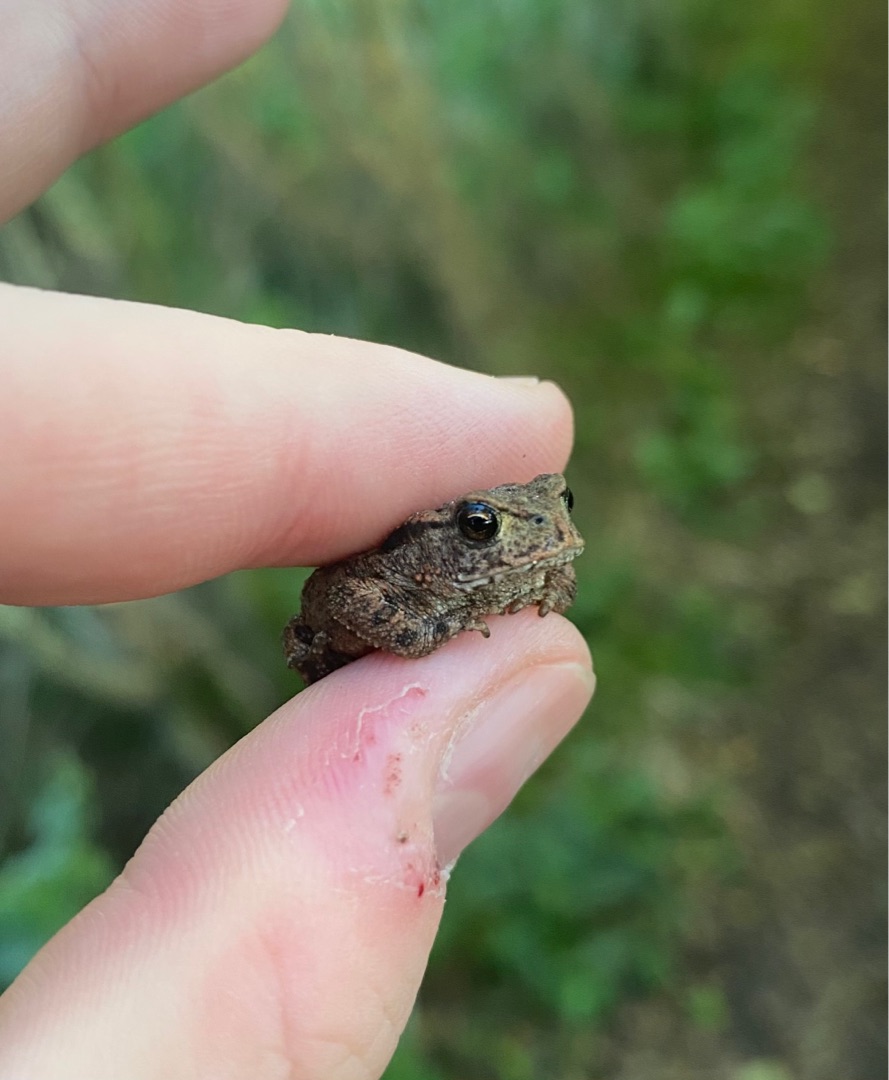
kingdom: Animalia
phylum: Chordata
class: Amphibia
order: Anura
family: Bufonidae
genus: Bufo
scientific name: Bufo bufo
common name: Skrubtudse
